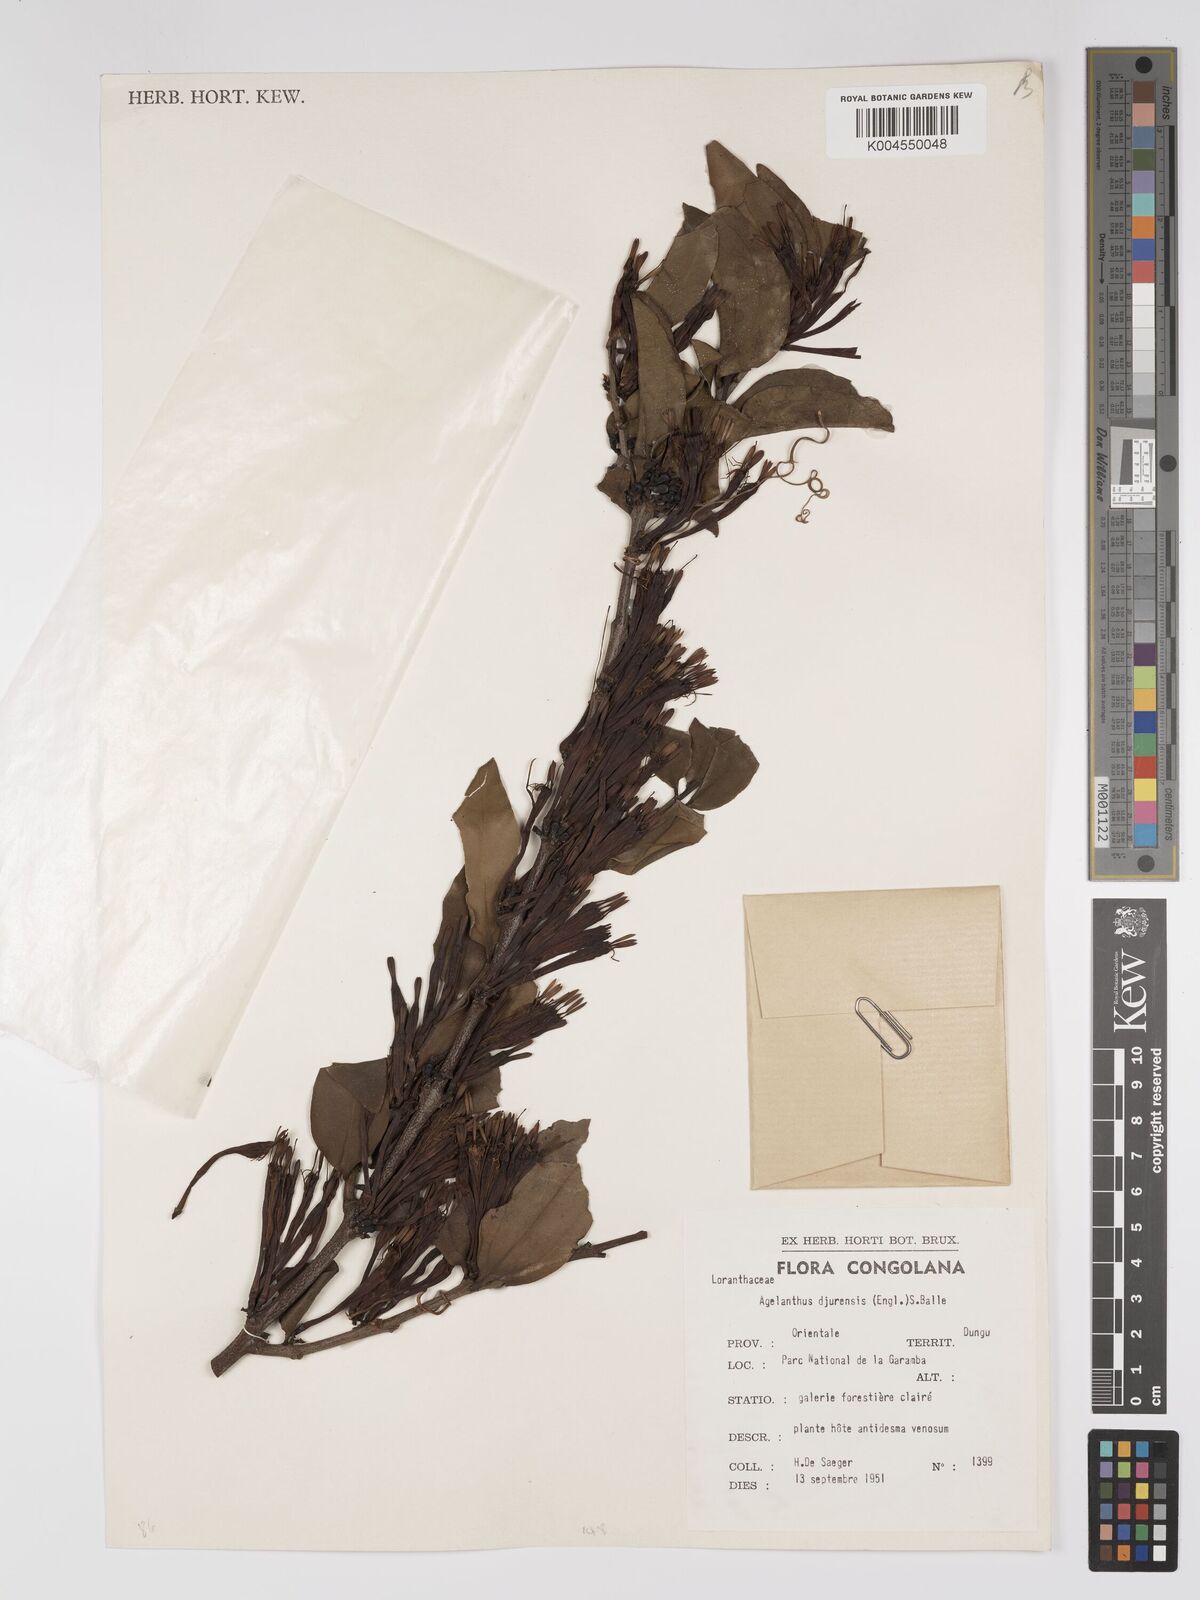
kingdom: Plantae
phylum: Tracheophyta
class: Magnoliopsida
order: Santalales
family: Loranthaceae
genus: Agelanthus
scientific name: Agelanthus djurensis
